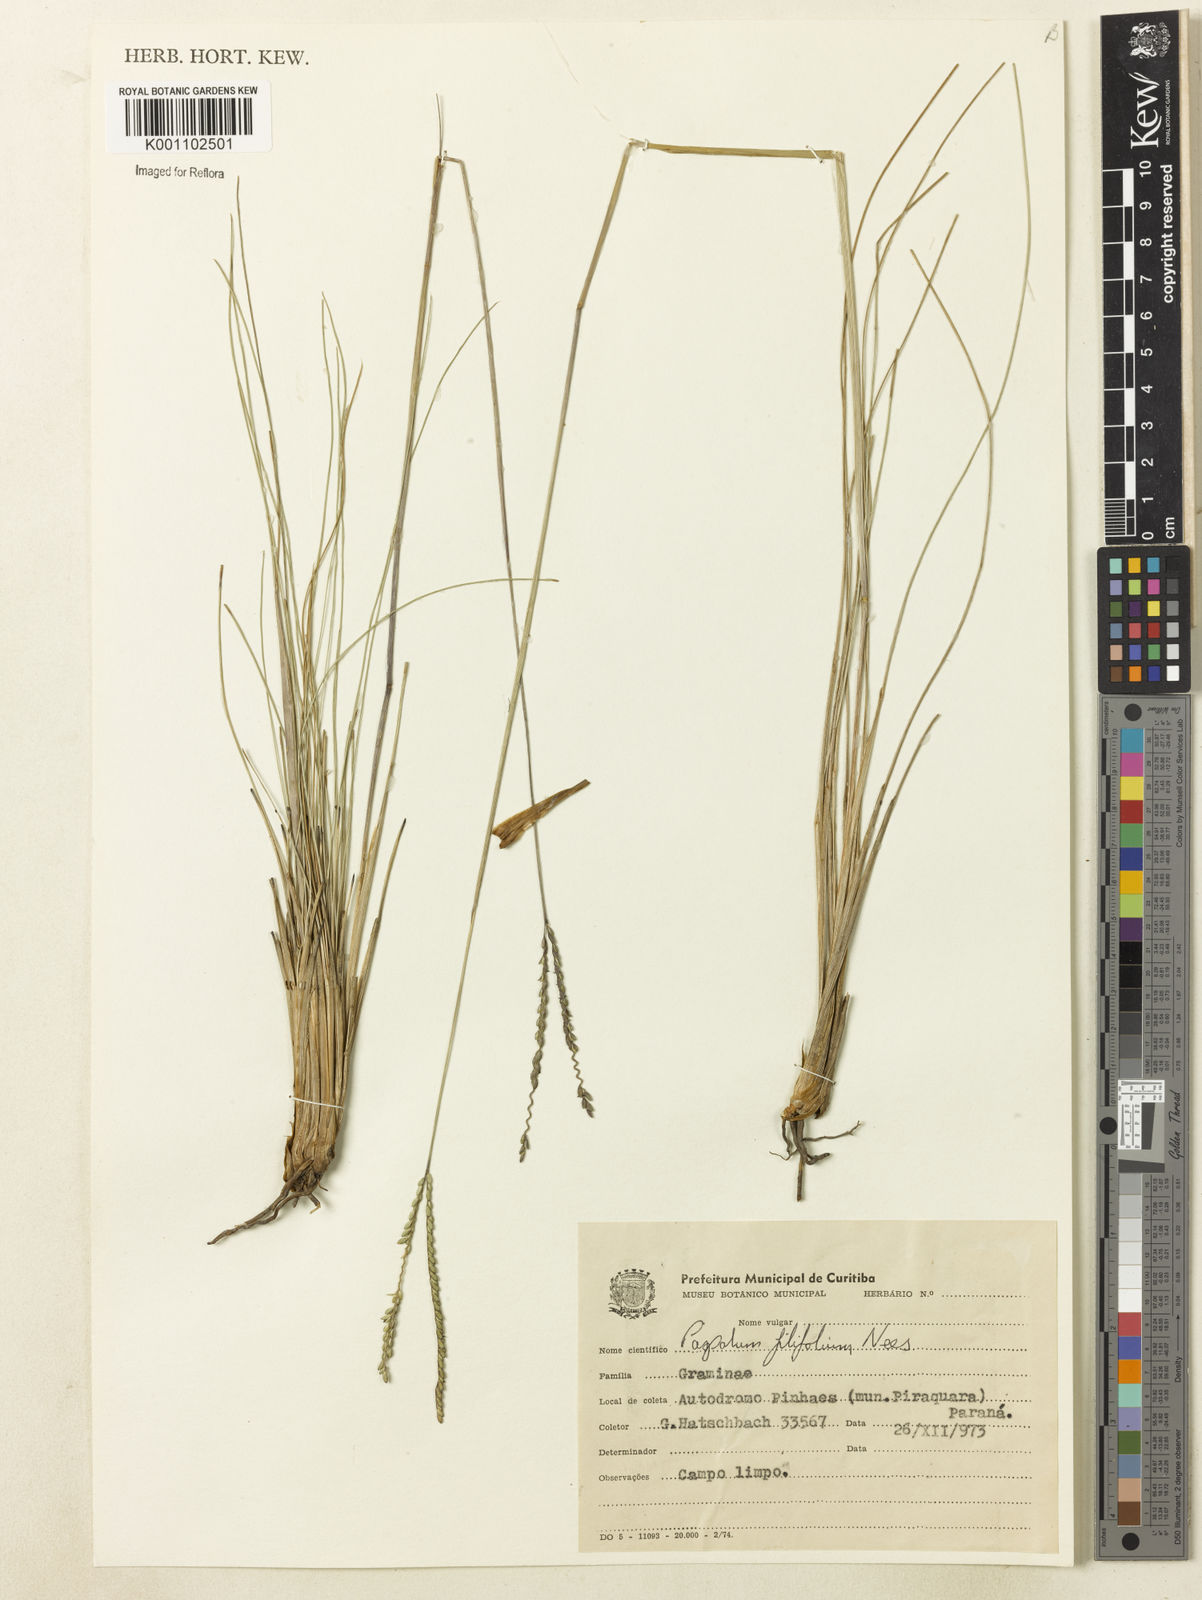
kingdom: Plantae
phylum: Tracheophyta
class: Liliopsida
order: Poales
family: Poaceae
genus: Paspalum
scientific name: Paspalum filifolium
